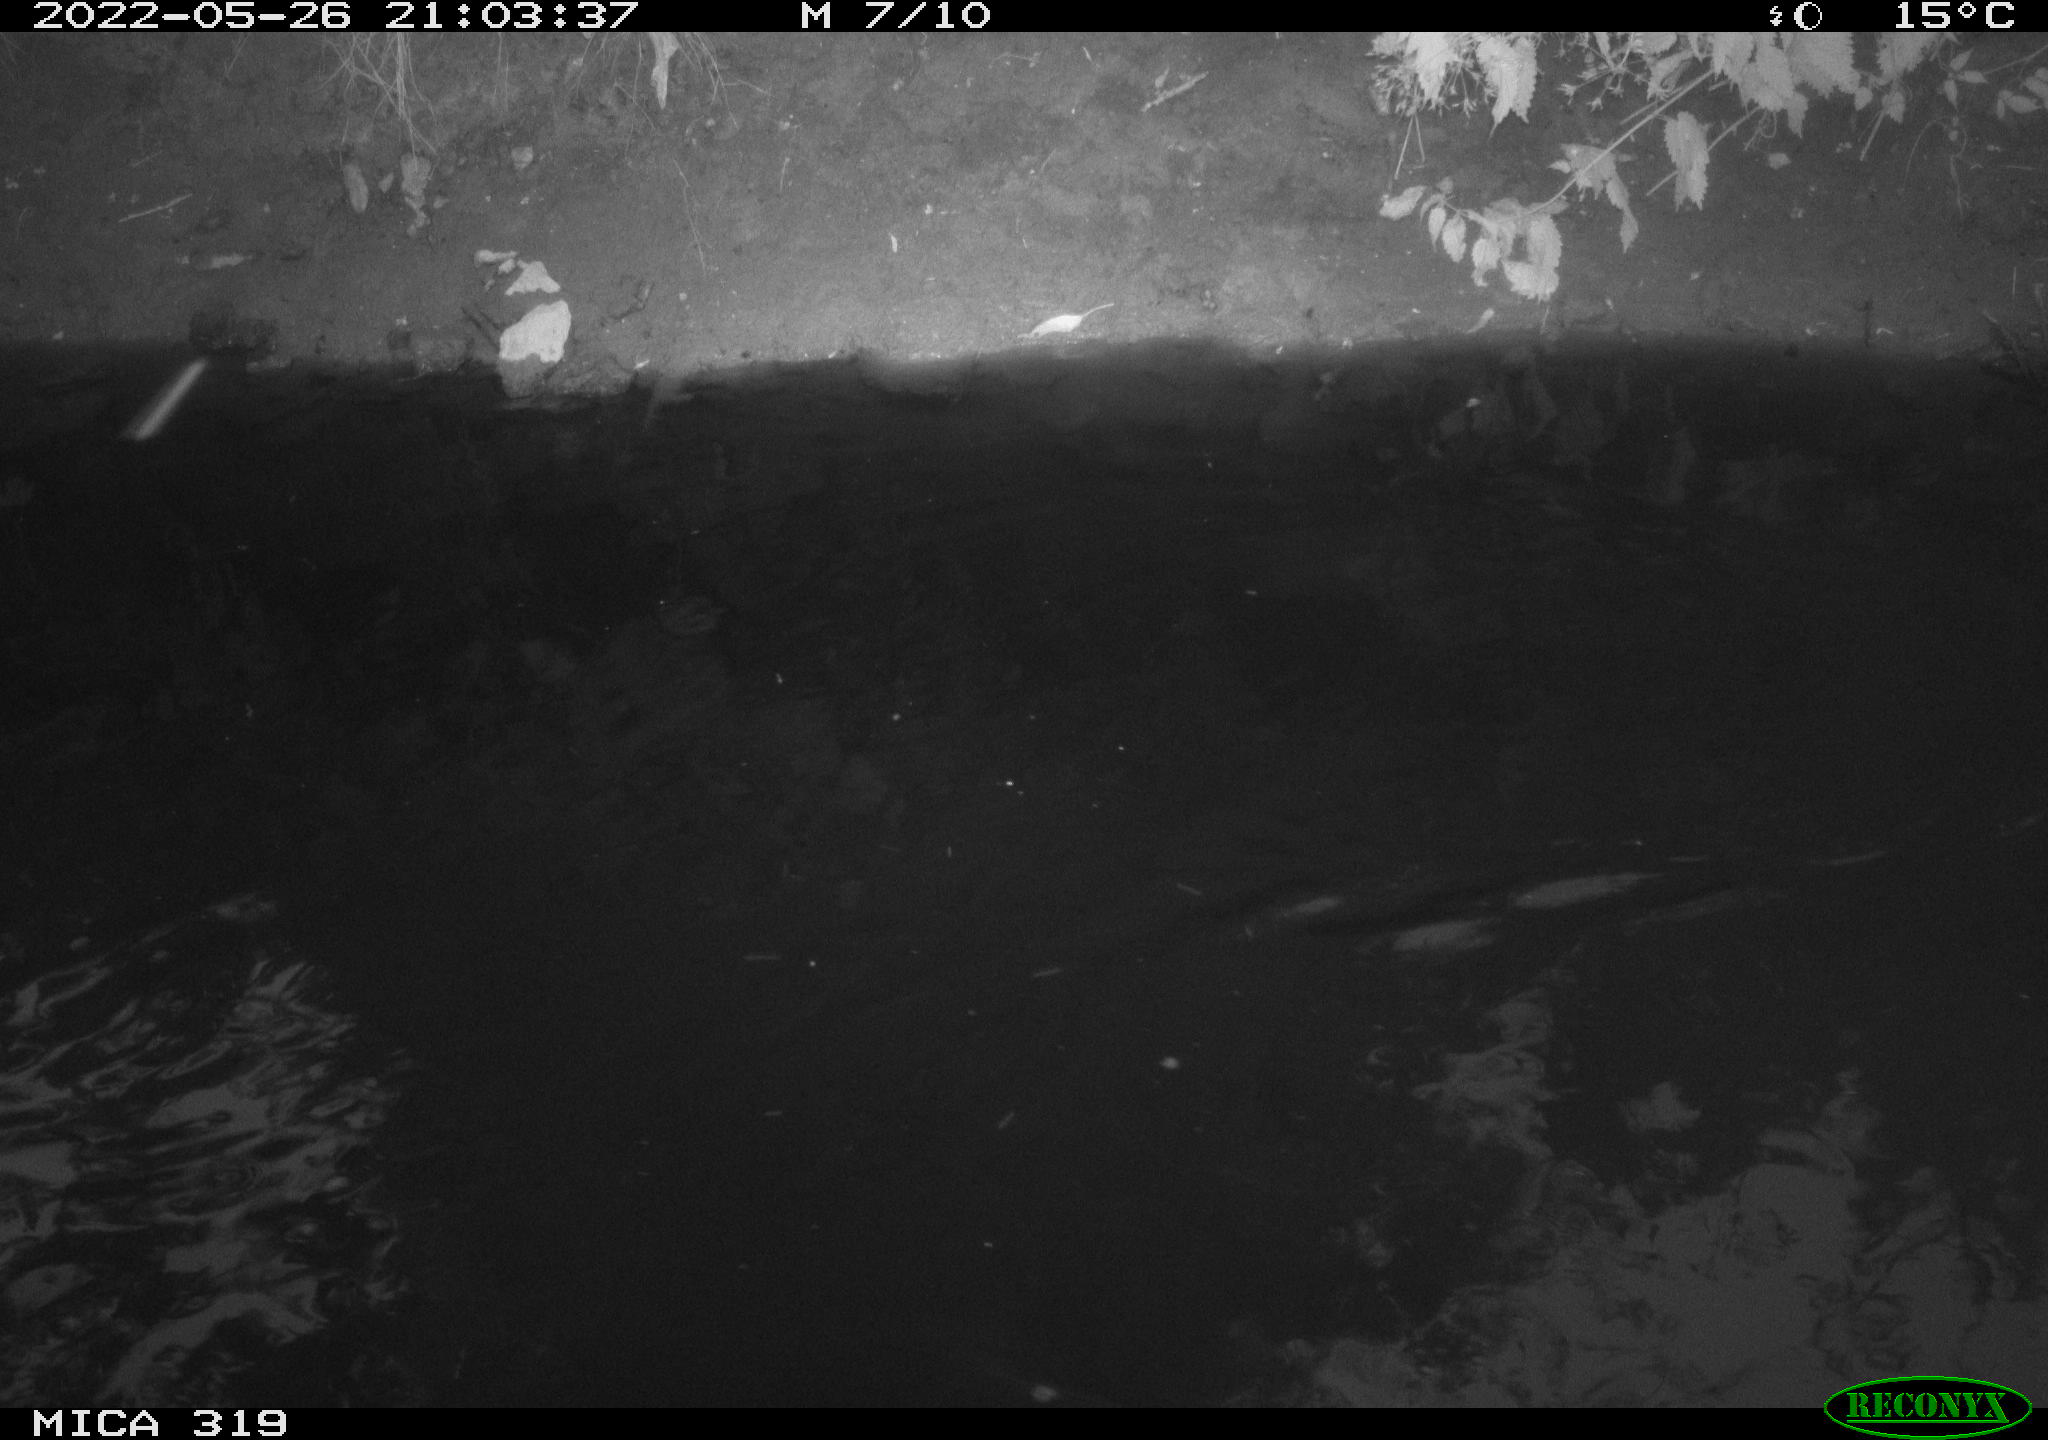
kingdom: Animalia
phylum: Chordata
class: Aves
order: Gruiformes
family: Rallidae
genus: Gallinula
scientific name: Gallinula chloropus
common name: Common moorhen
